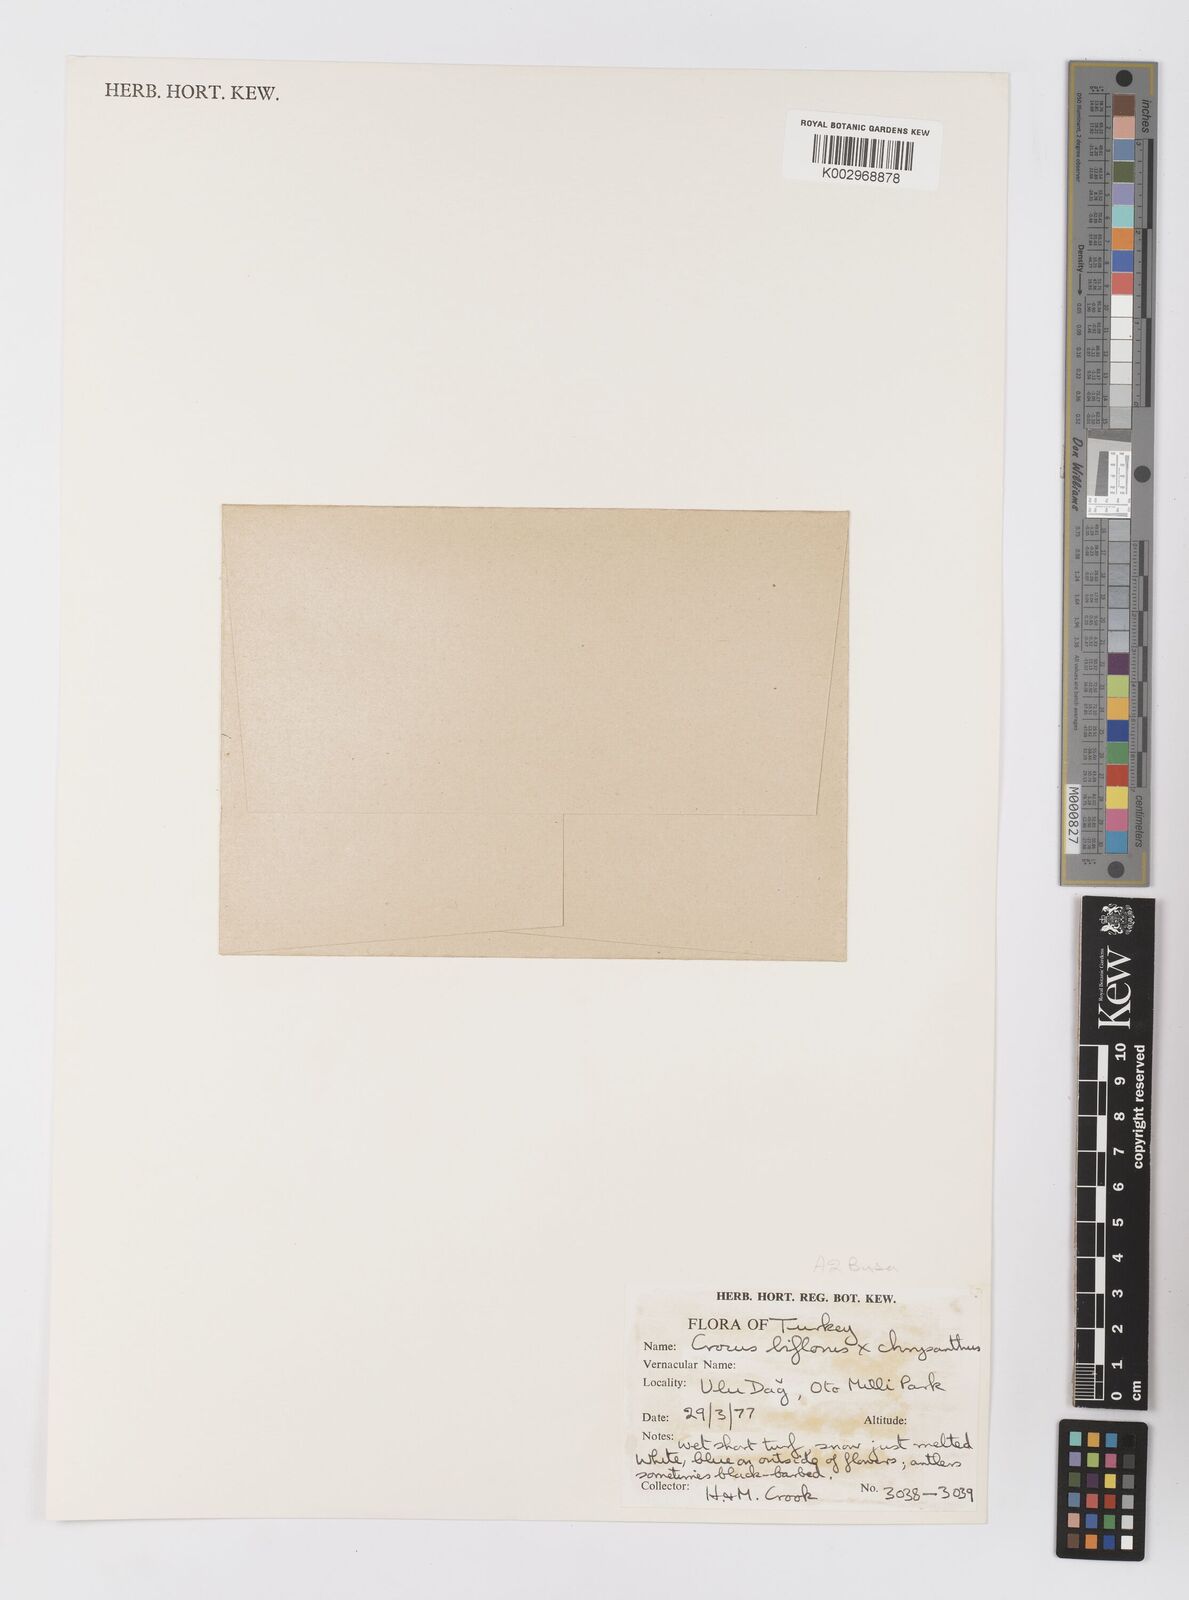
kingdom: Plantae
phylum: Tracheophyta
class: Liliopsida
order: Asparagales
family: Iridaceae
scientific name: Iridaceae
